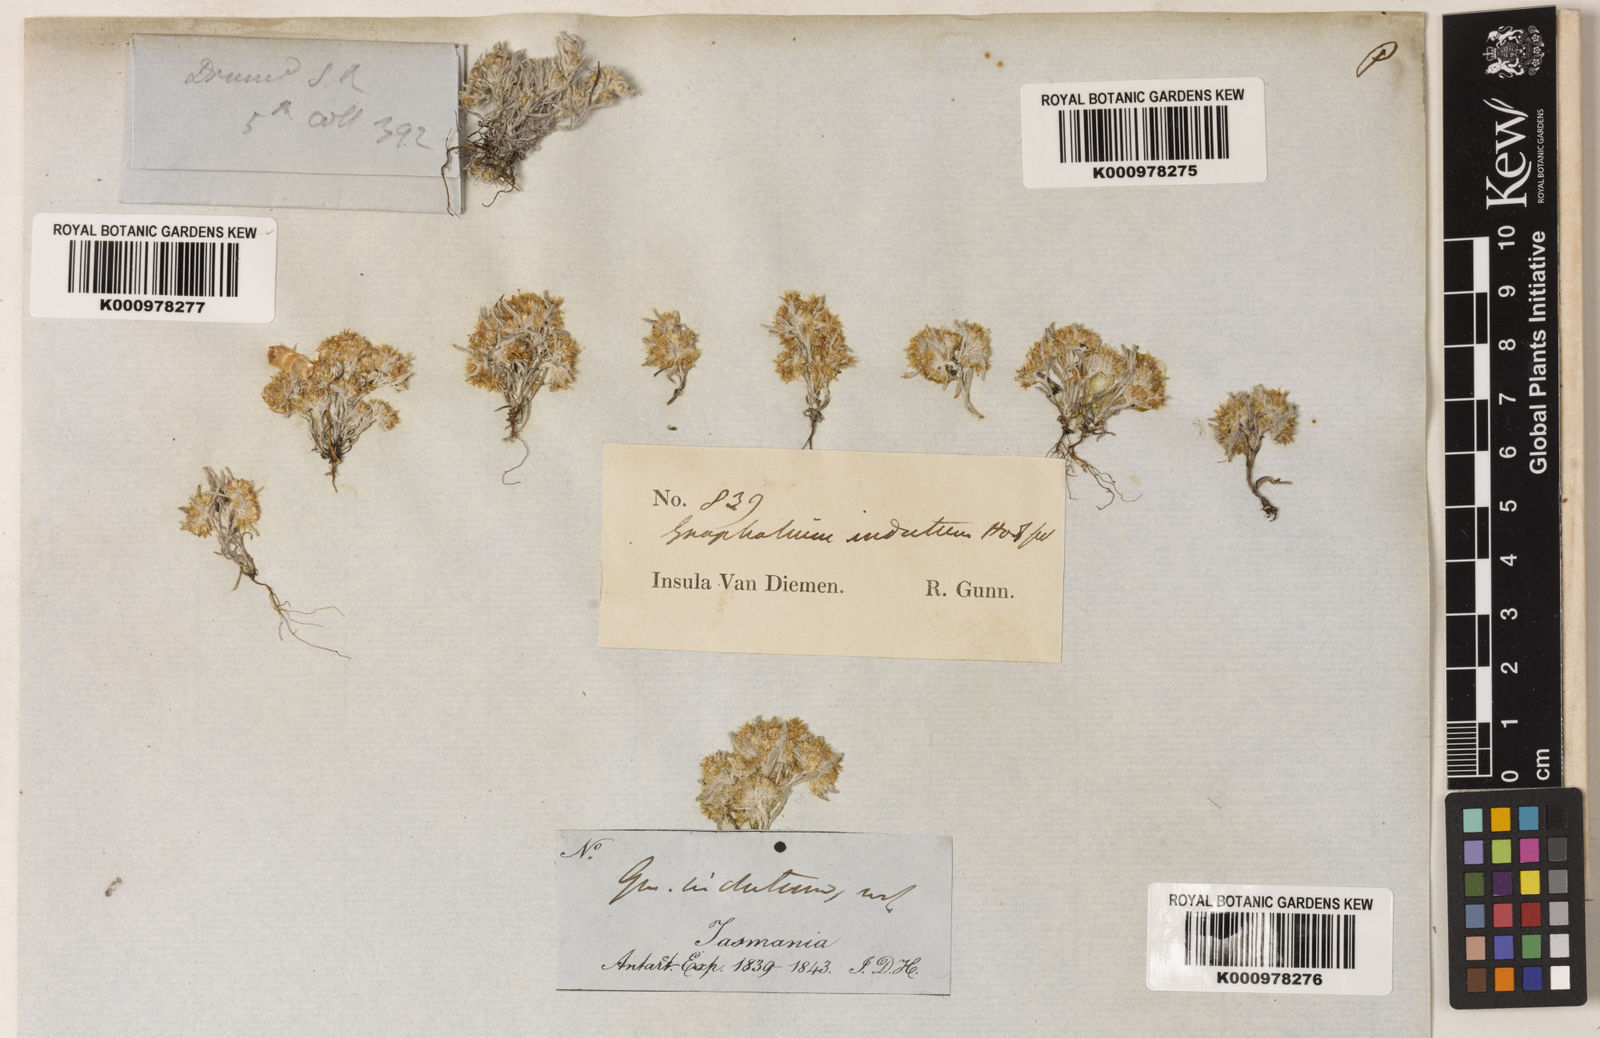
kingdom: Plantae
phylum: Tracheophyta
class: Magnoliopsida
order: Asterales
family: Asteraceae
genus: Gnaphalium
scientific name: Gnaphalium indutum
